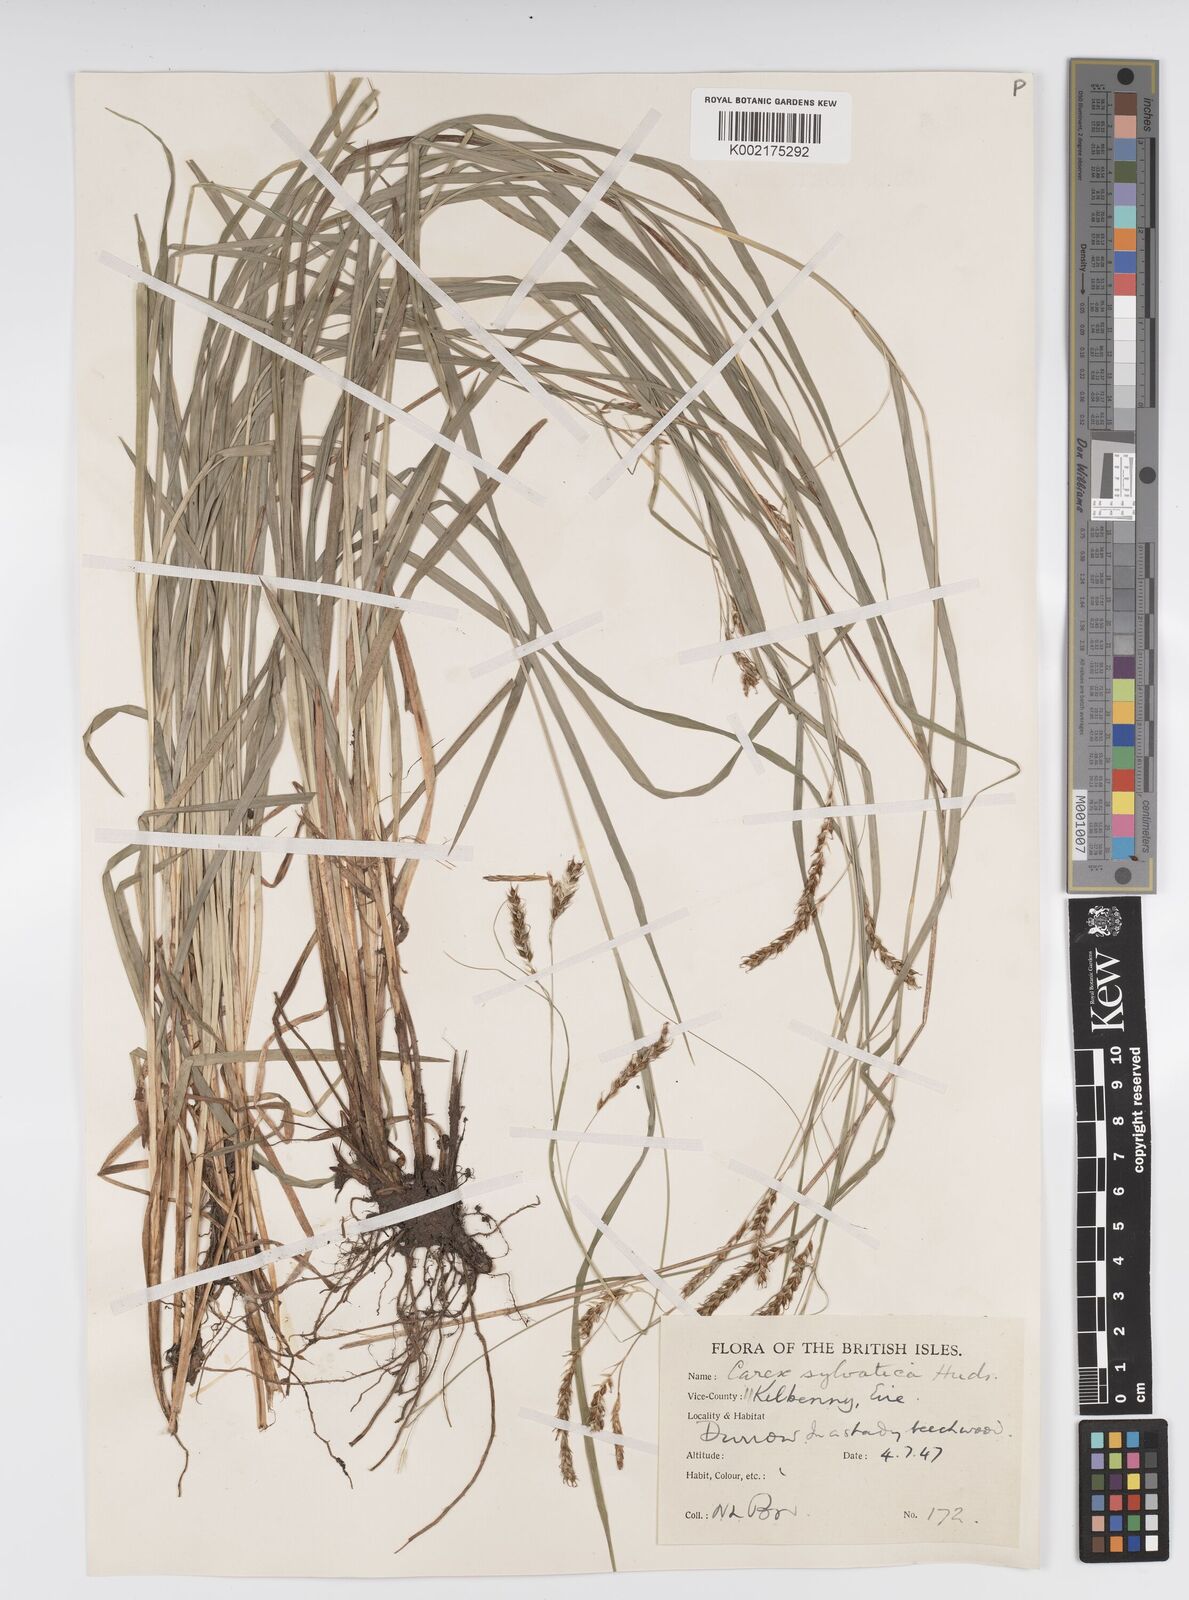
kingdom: Plantae
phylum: Tracheophyta
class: Liliopsida
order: Poales
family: Cyperaceae
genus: Carex
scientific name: Carex sylvatica
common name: Wood-sedge
